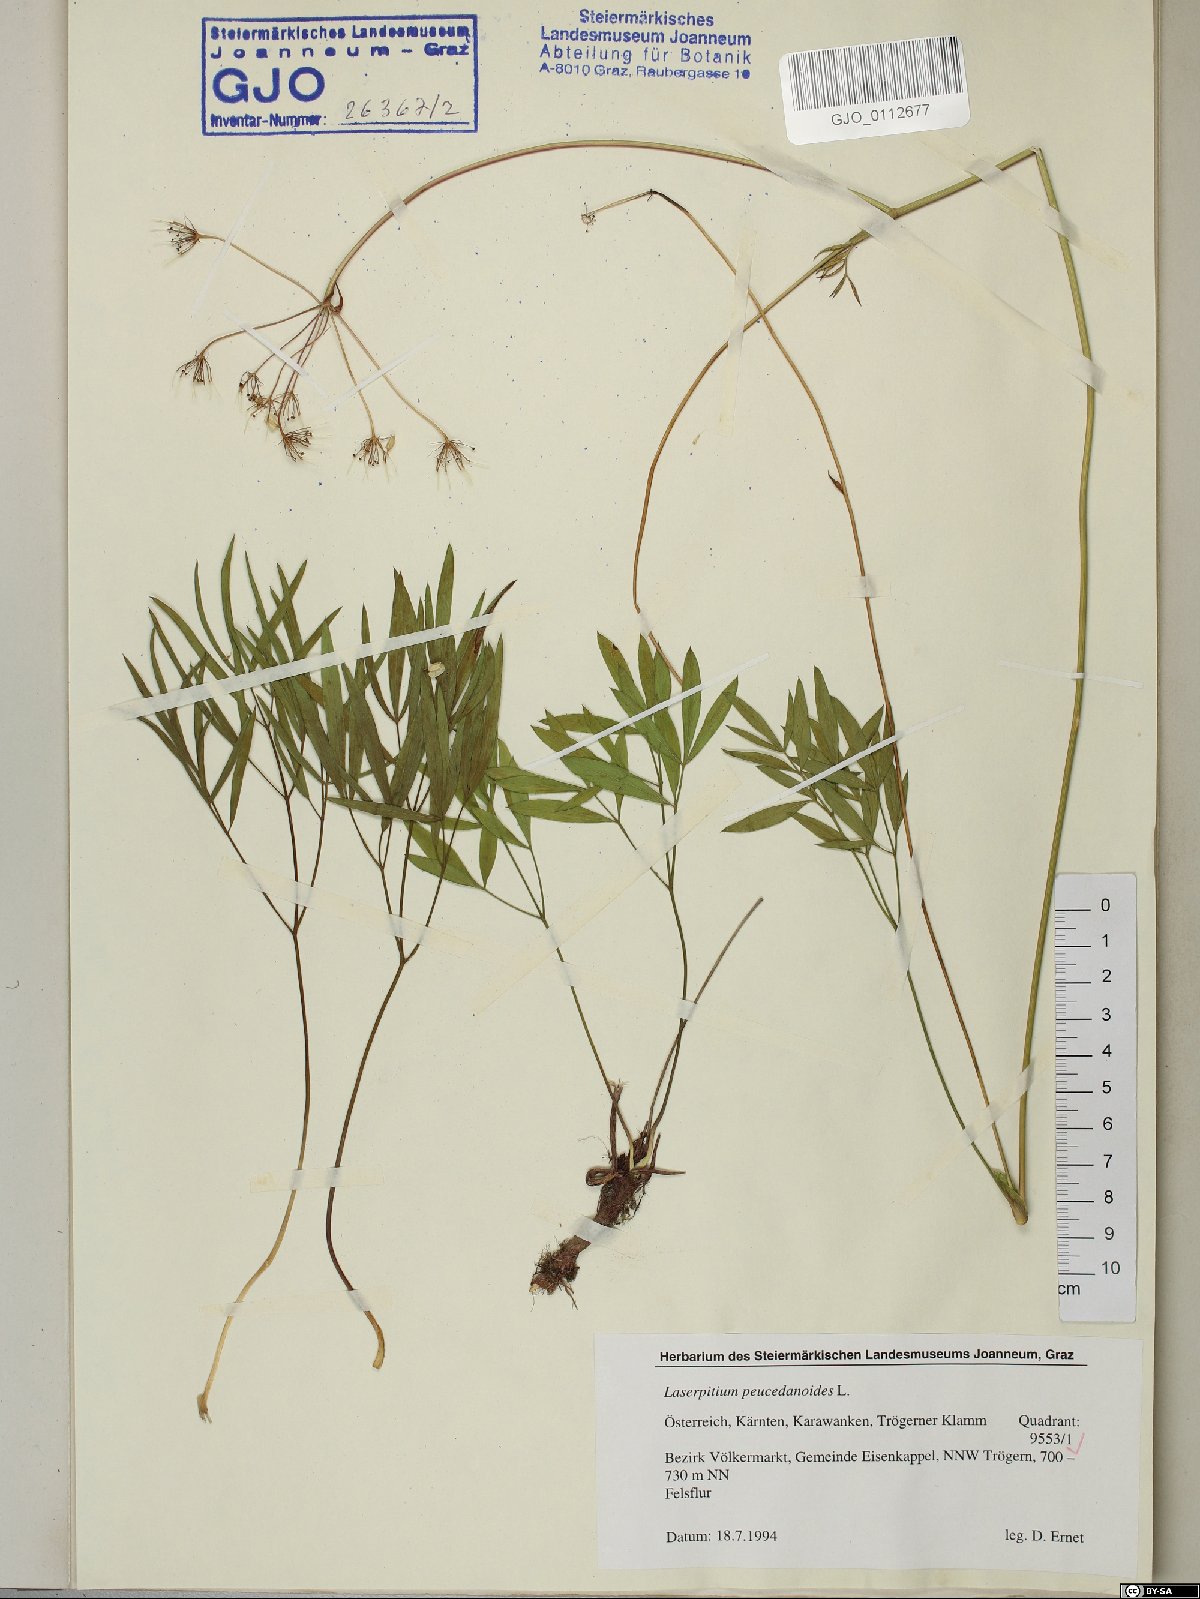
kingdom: Plantae
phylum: Tracheophyta
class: Magnoliopsida
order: Apiales
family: Apiaceae
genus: Laserpitium
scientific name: Laserpitium peucedanoides
